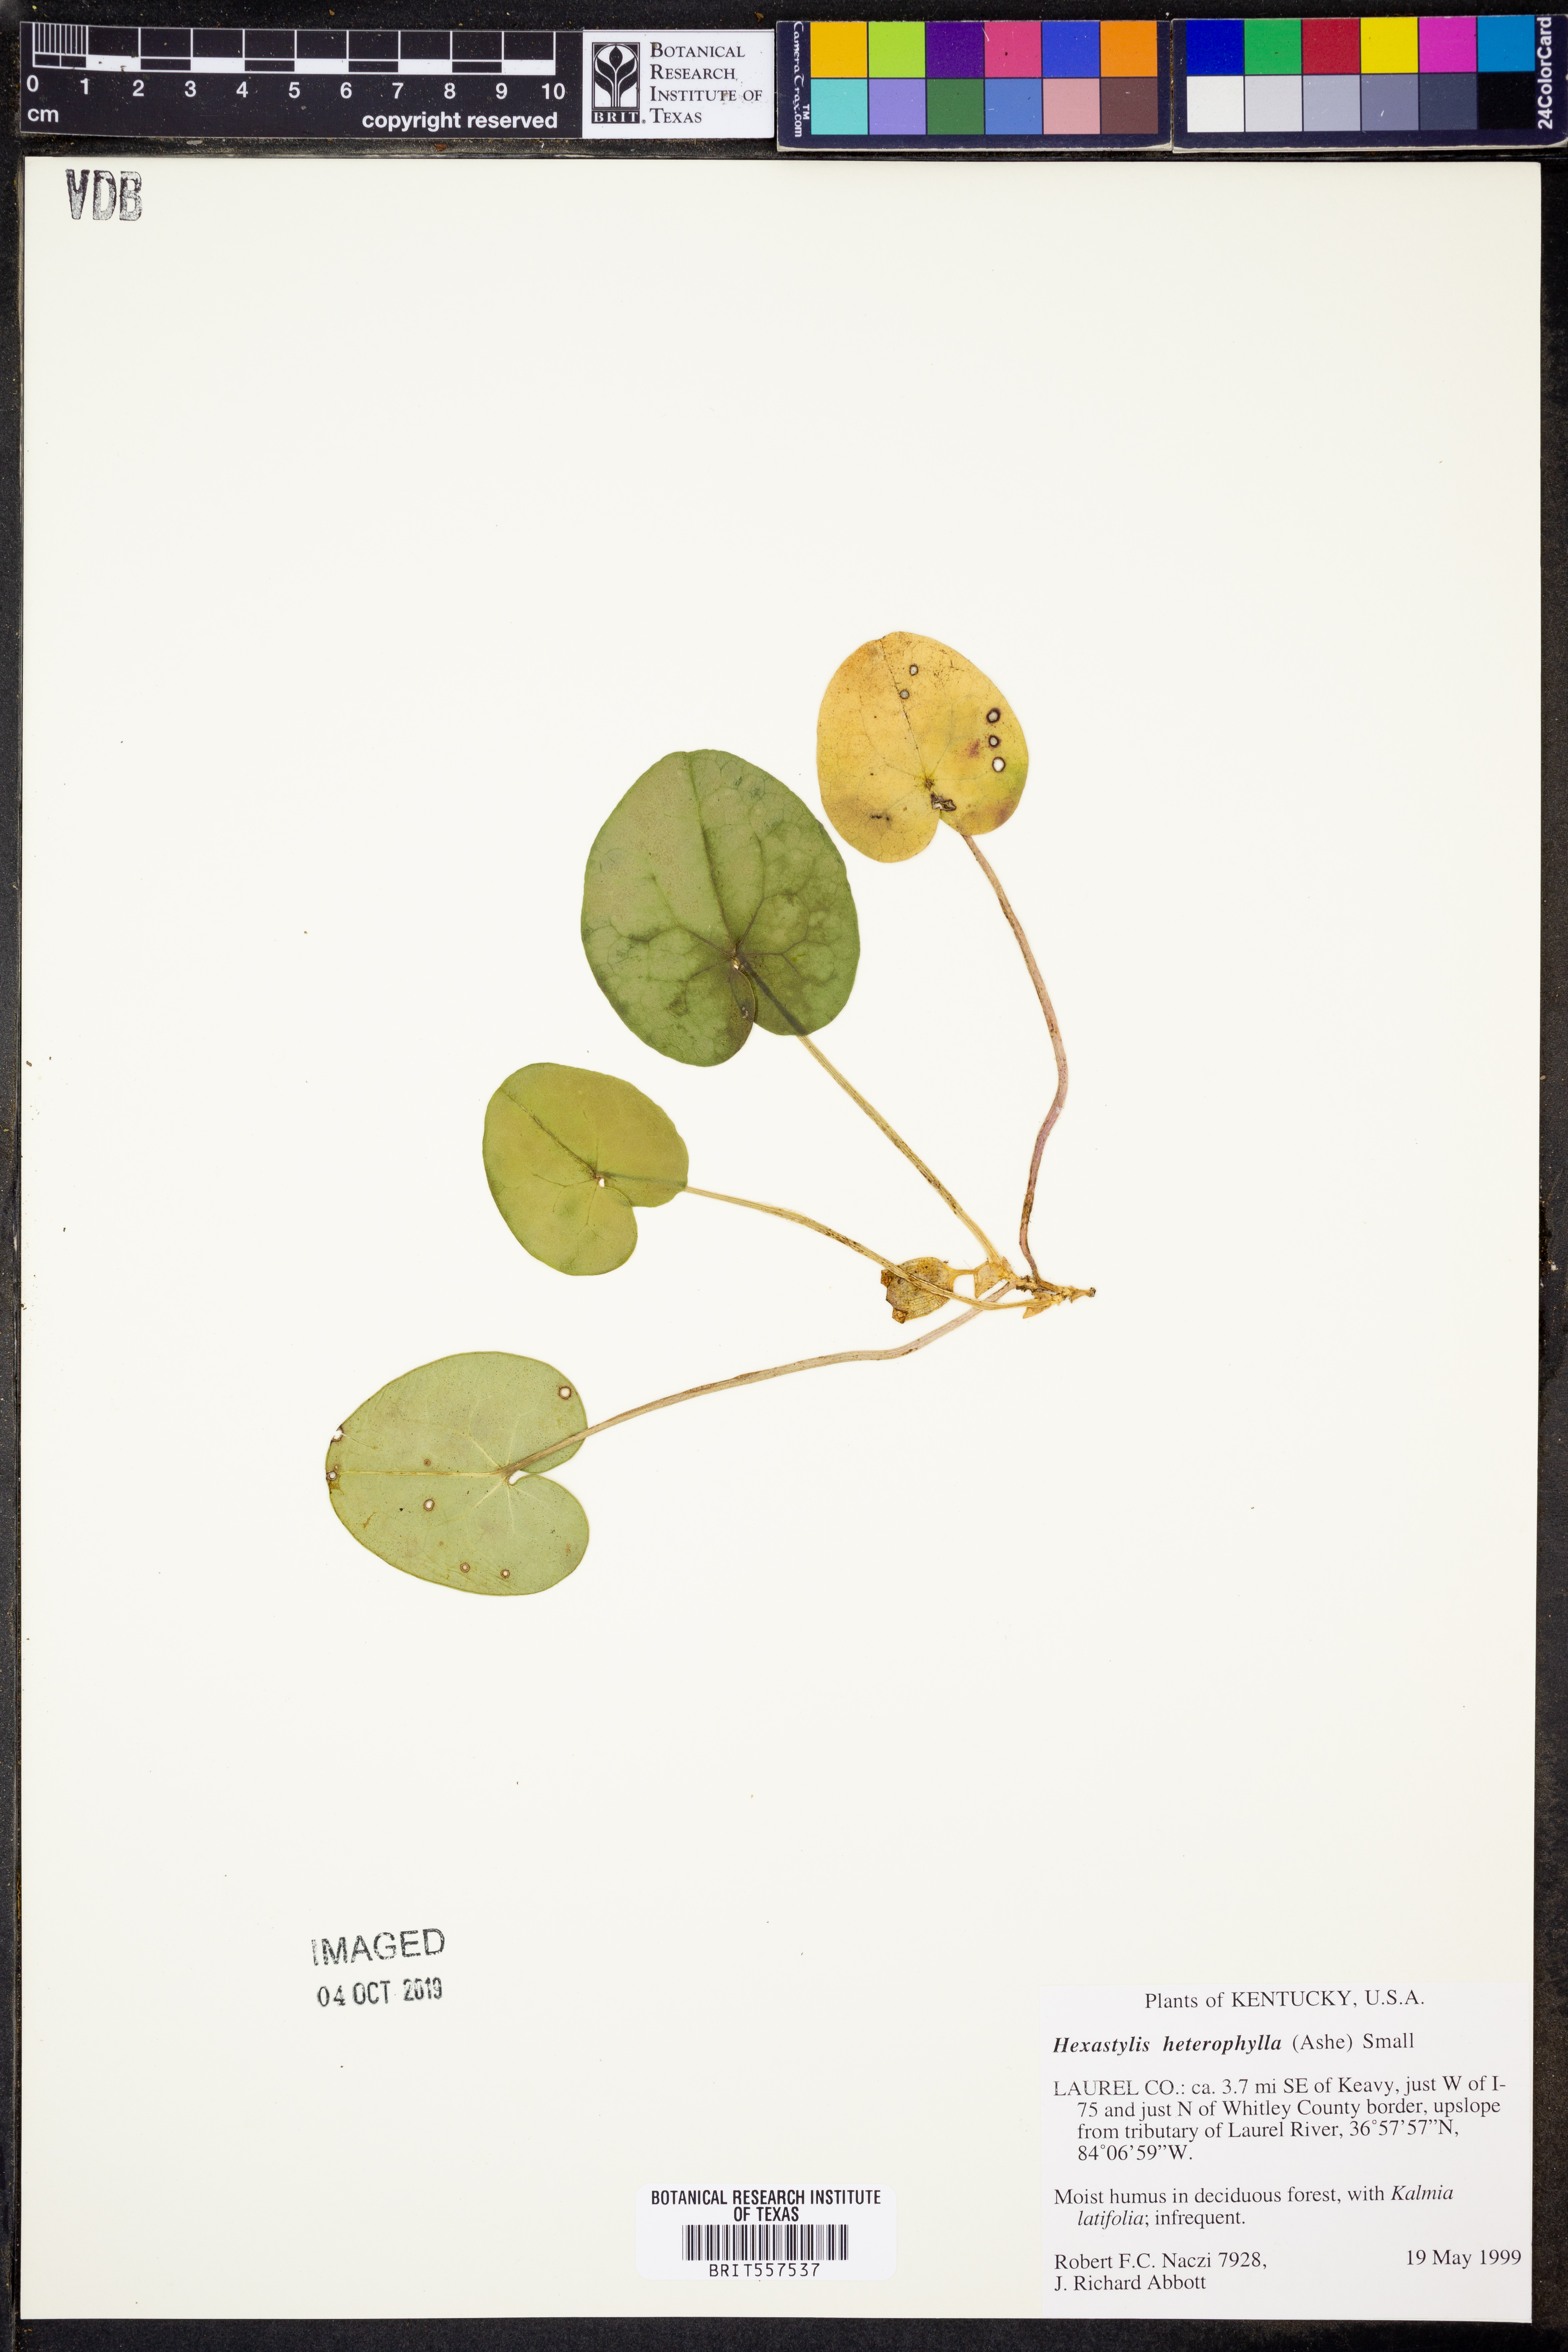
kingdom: Plantae
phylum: Tracheophyta
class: Magnoliopsida
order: Piperales
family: Aristolochiaceae
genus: Hexastylis
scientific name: Hexastylis heterophylla
